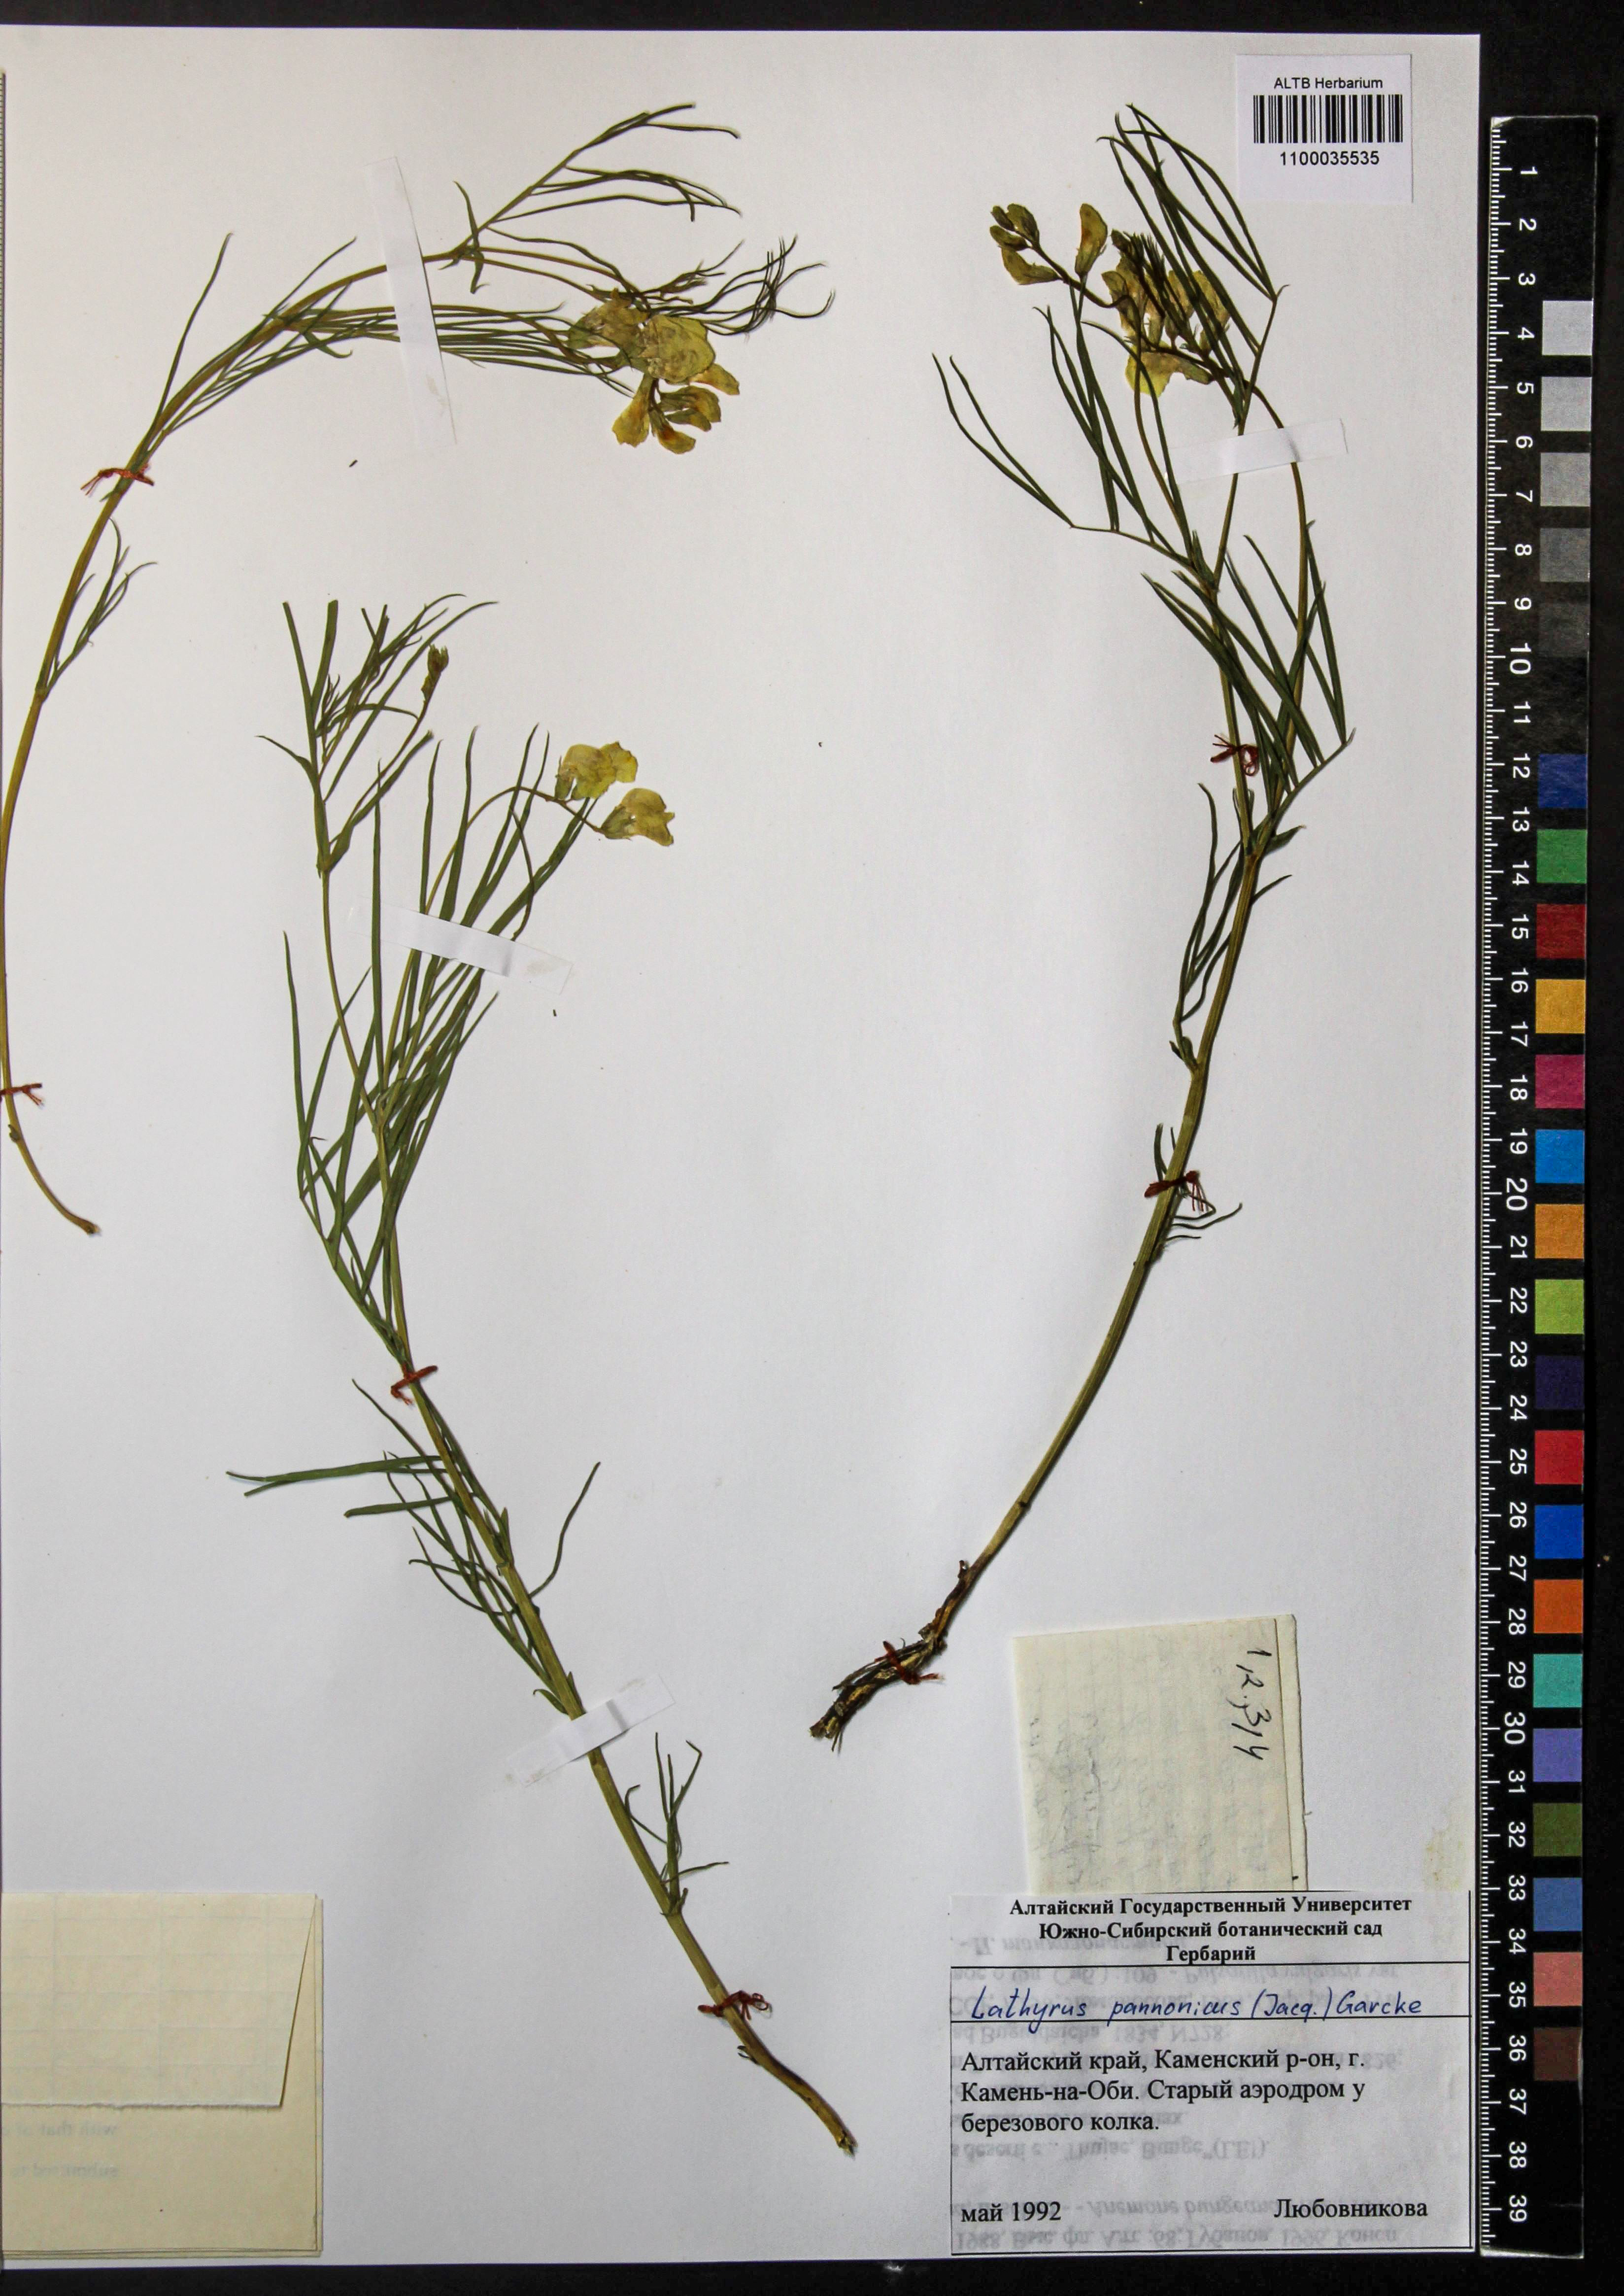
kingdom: Plantae
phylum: Tracheophyta
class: Magnoliopsida
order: Fabales
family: Fabaceae
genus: Lathyrus
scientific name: Lathyrus pannonicus
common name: Pea
